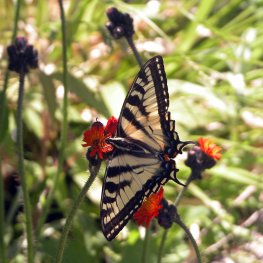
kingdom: Animalia
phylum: Arthropoda
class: Insecta
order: Lepidoptera
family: Papilionidae
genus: Pterourus
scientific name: Pterourus canadensis
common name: Canadian Tiger Swallowtail
